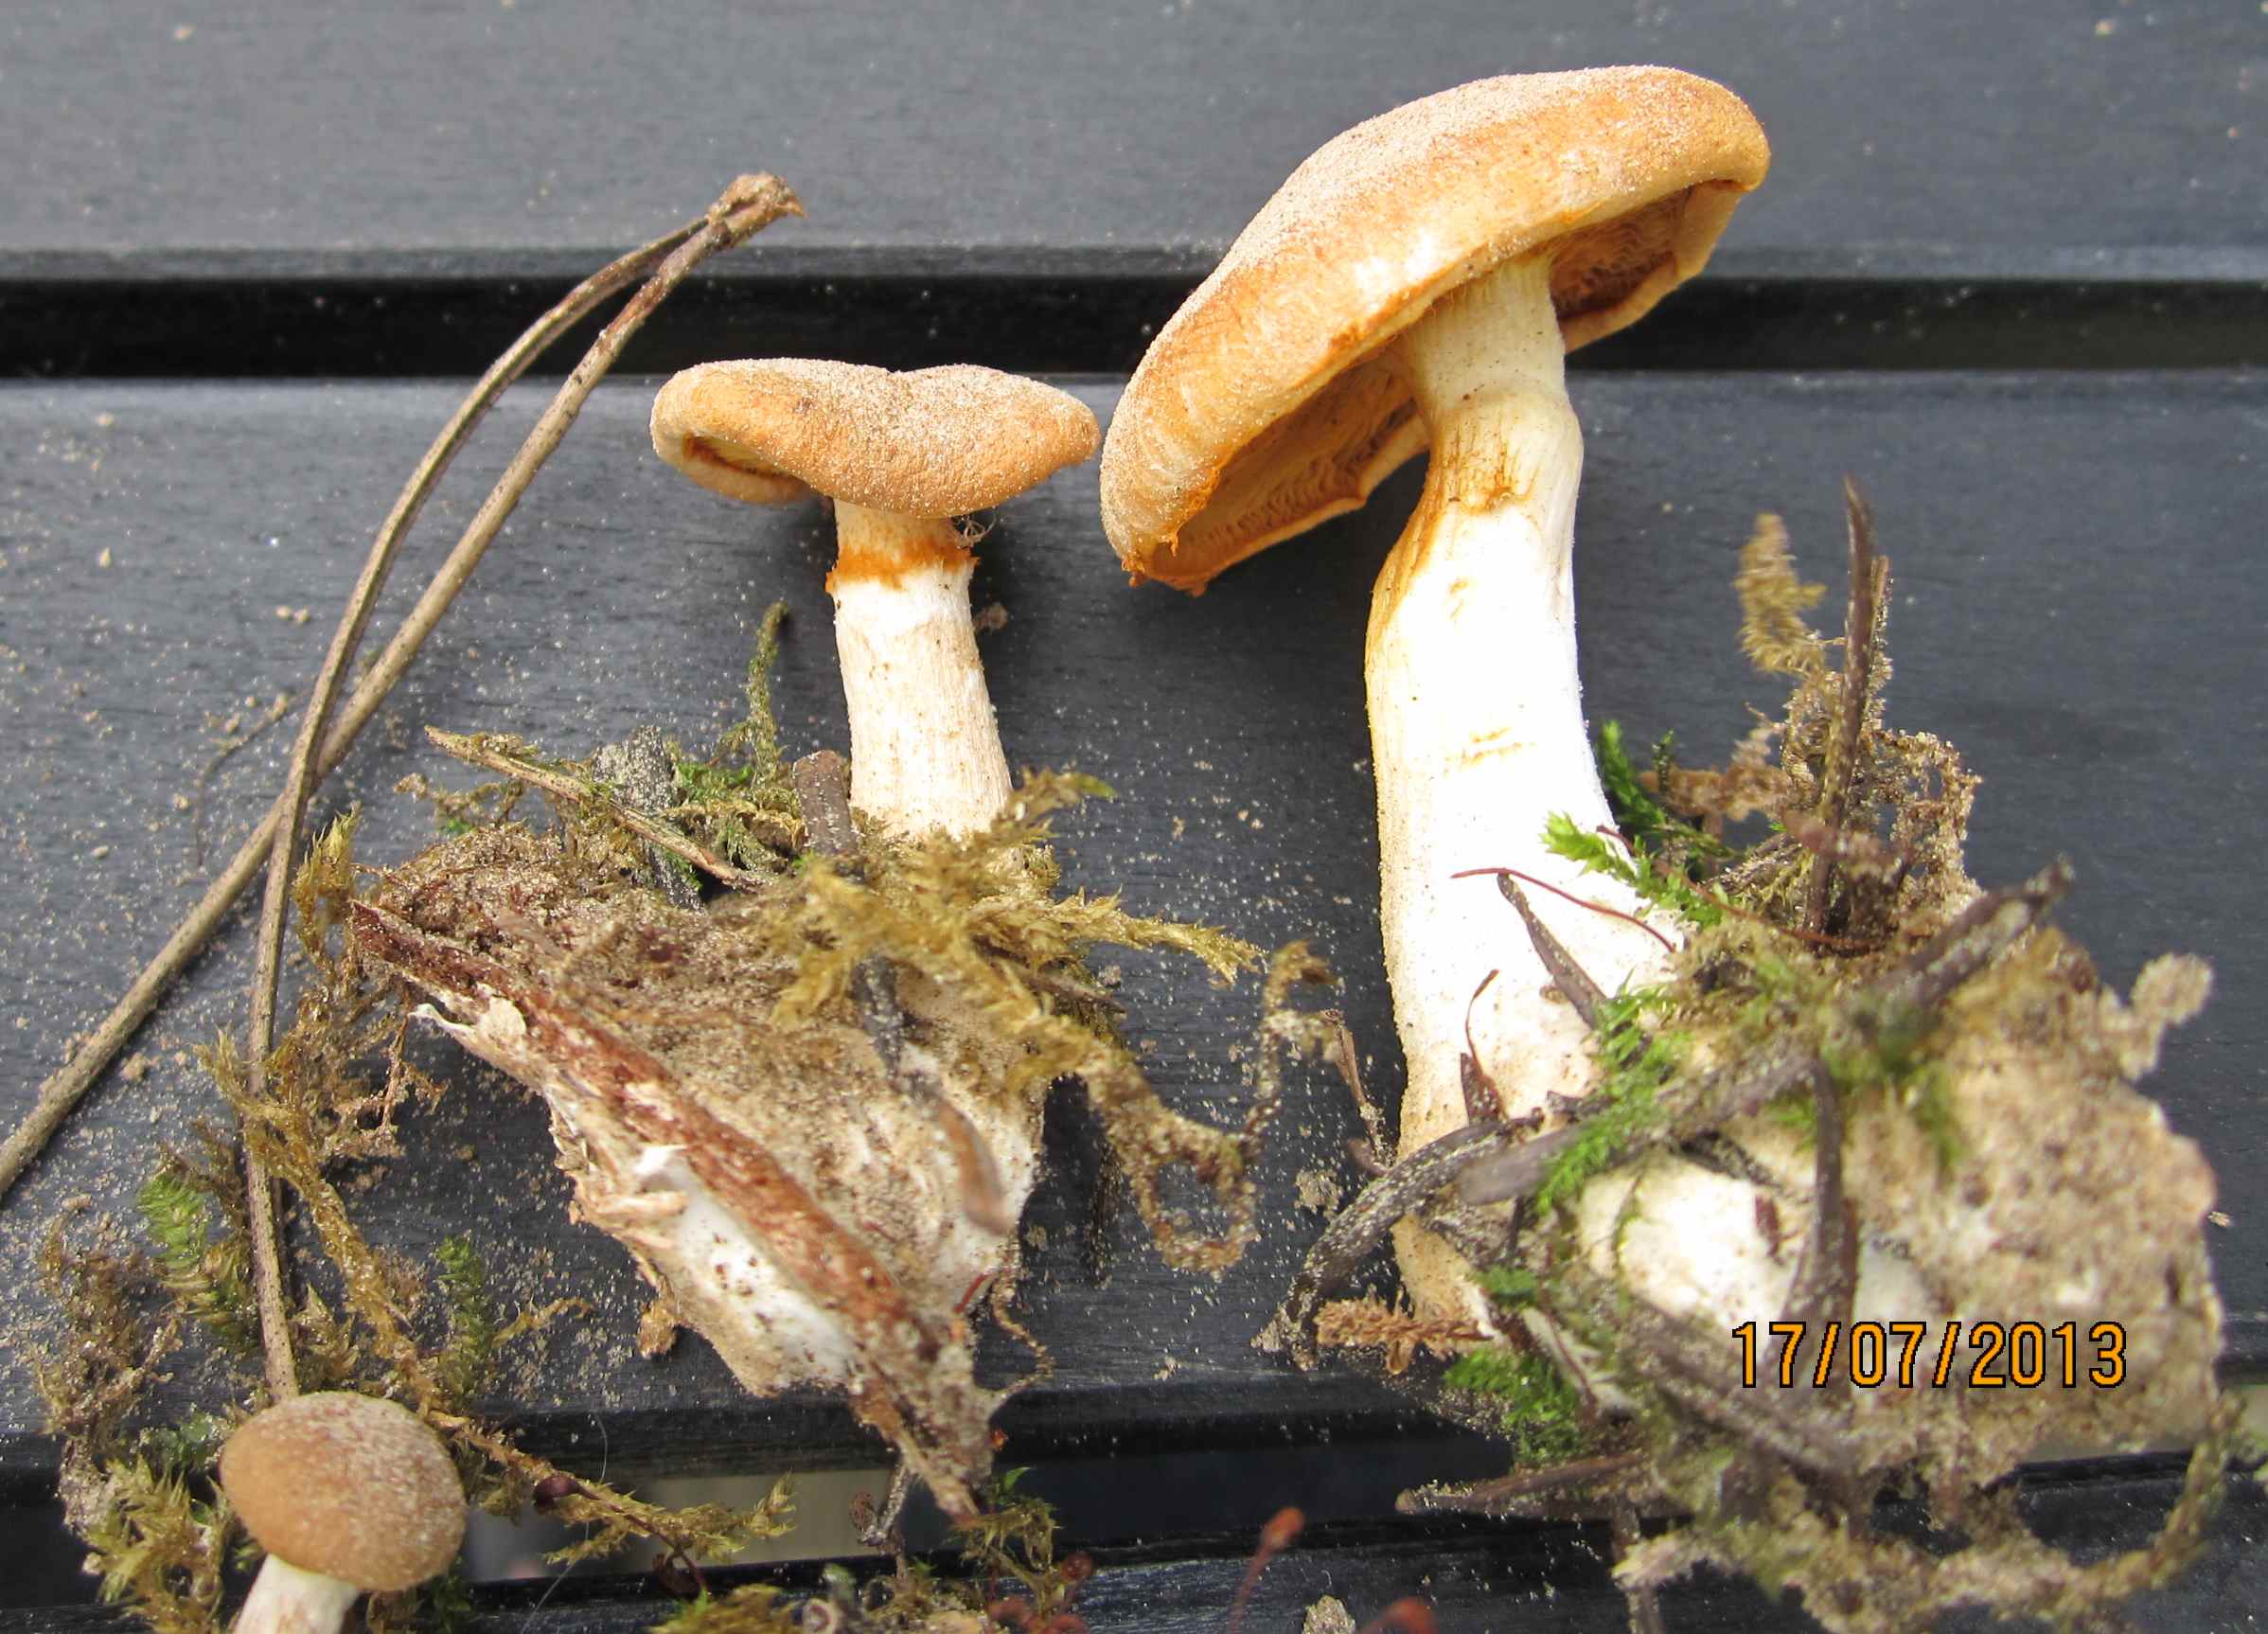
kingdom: Fungi
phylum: Basidiomycota
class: Agaricomycetes
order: Agaricales
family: Hymenogastraceae
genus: Gymnopilus
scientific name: Gymnopilus penetrans
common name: plettet flammehat
